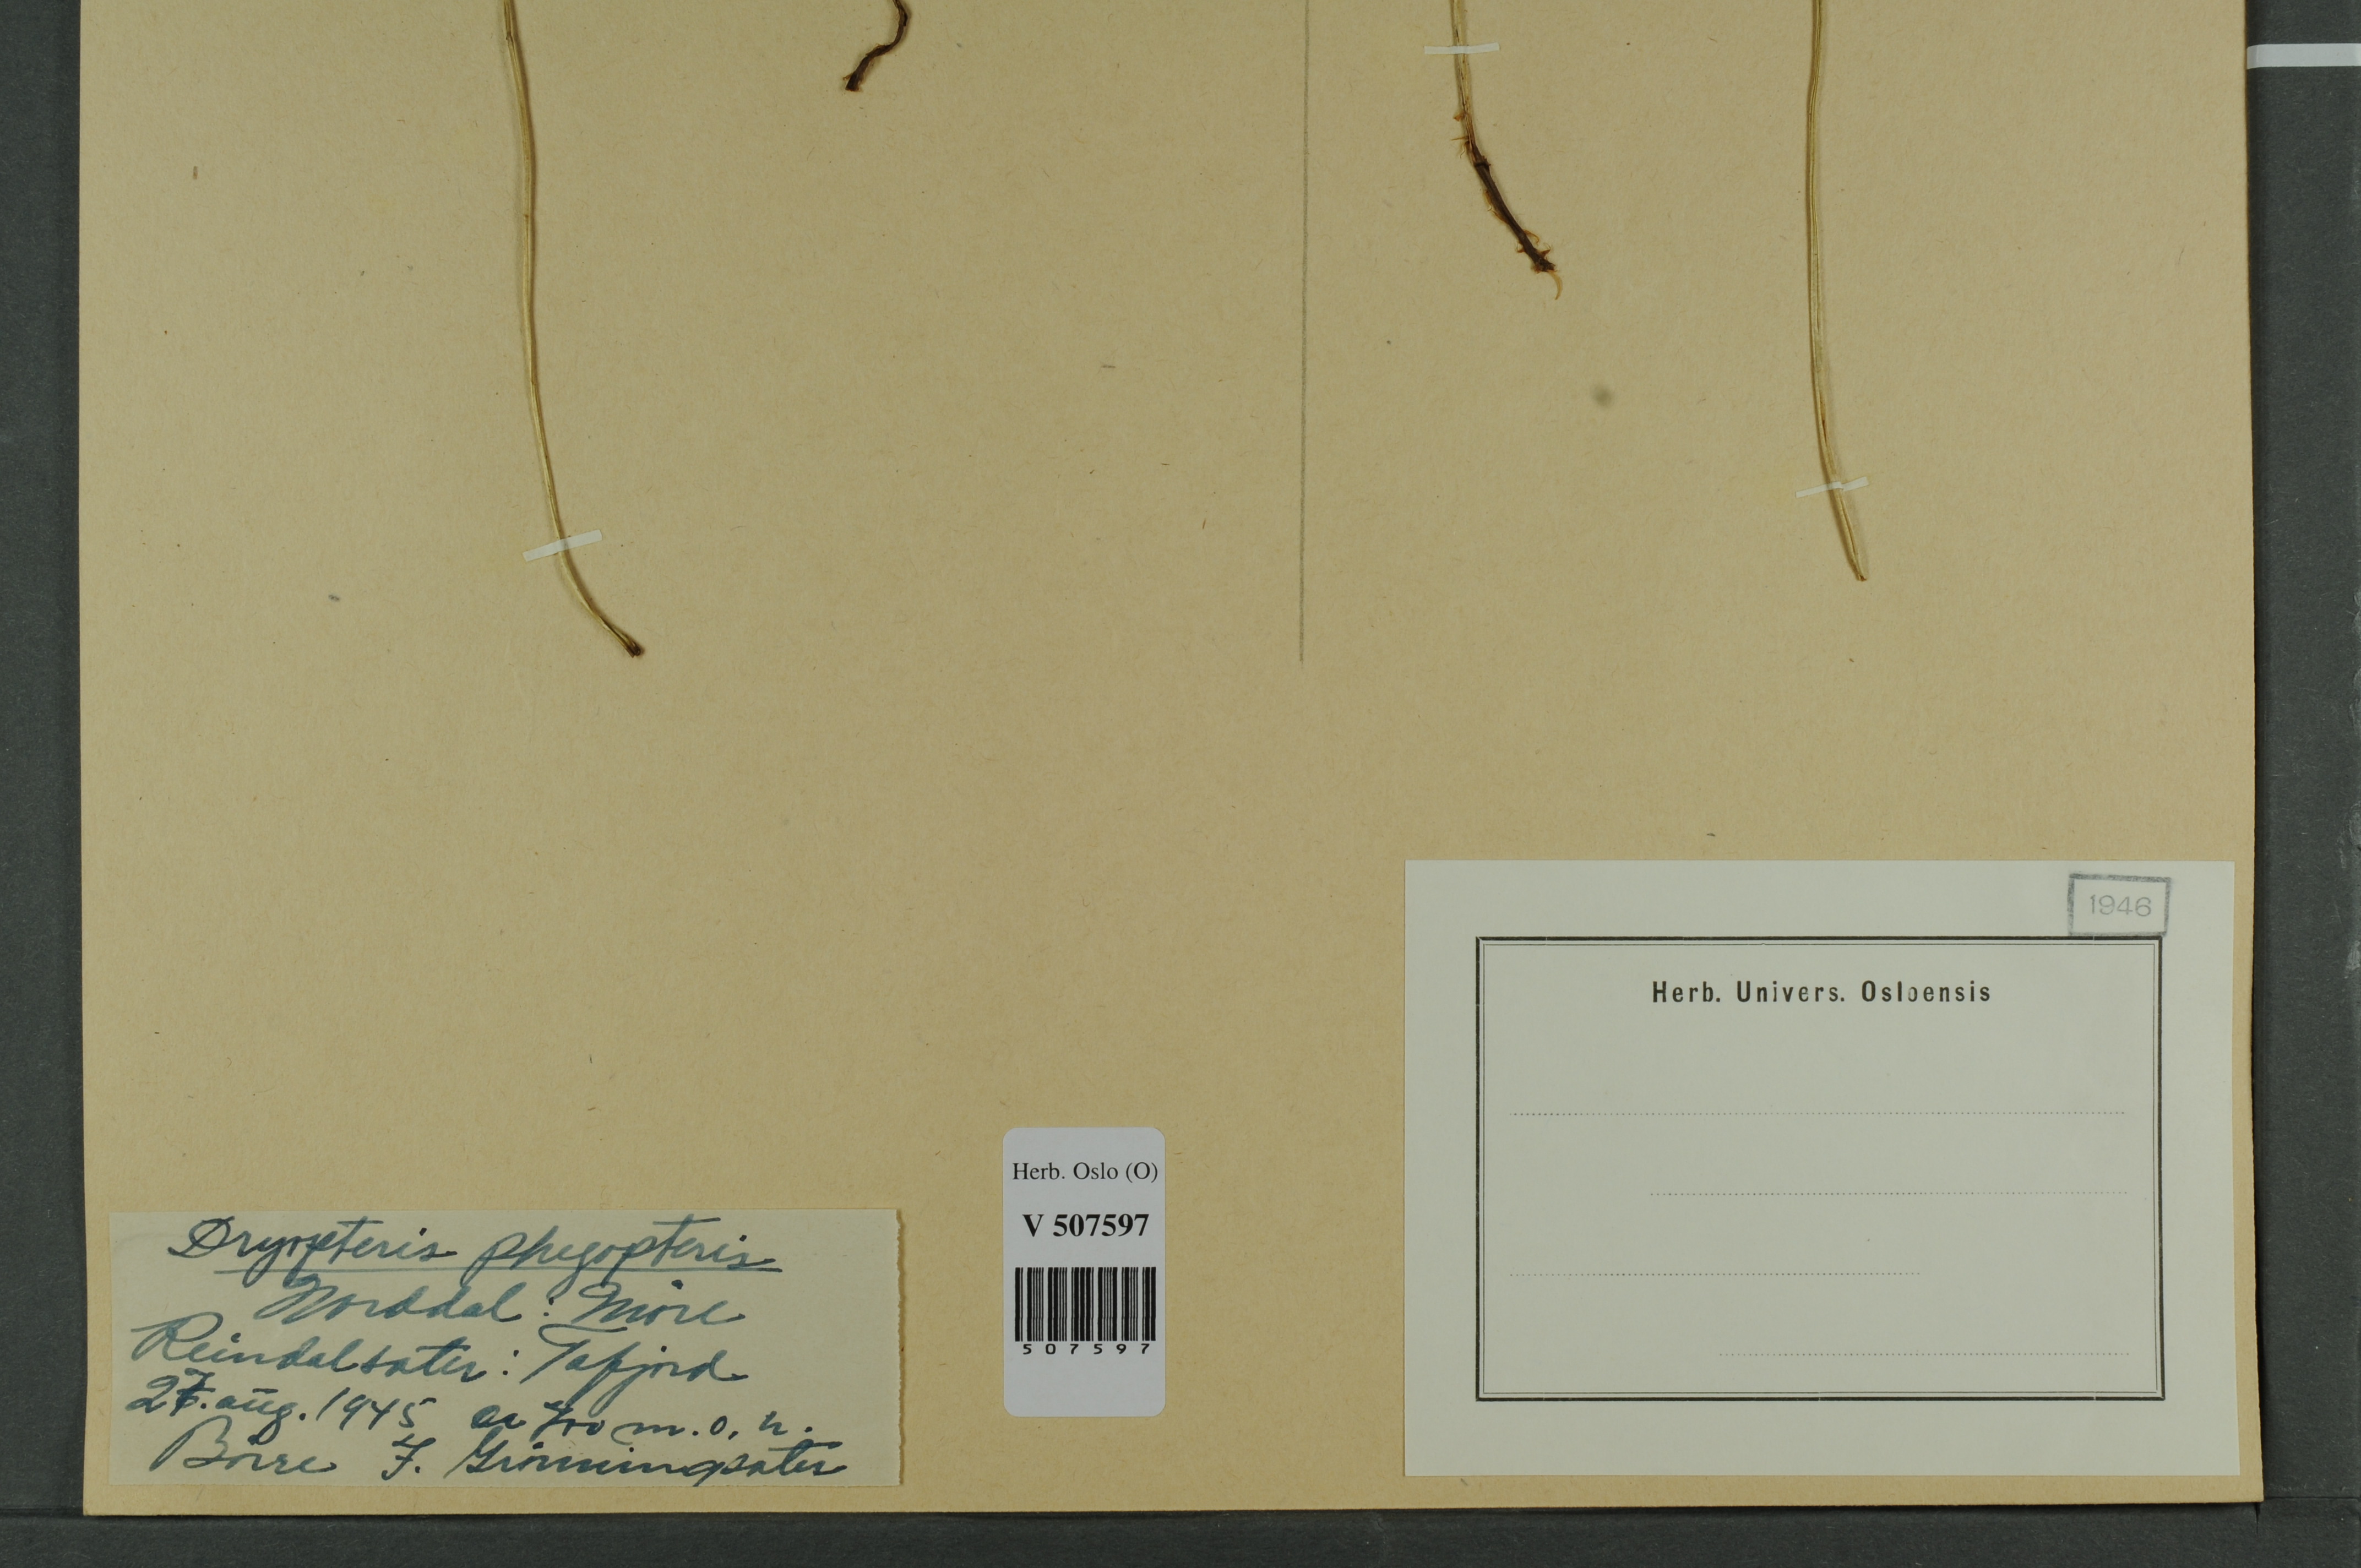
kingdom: Plantae
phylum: Tracheophyta
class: Polypodiopsida
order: Polypodiales
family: Thelypteridaceae
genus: Phegopteris
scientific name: Phegopteris connectilis
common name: Beech fern
